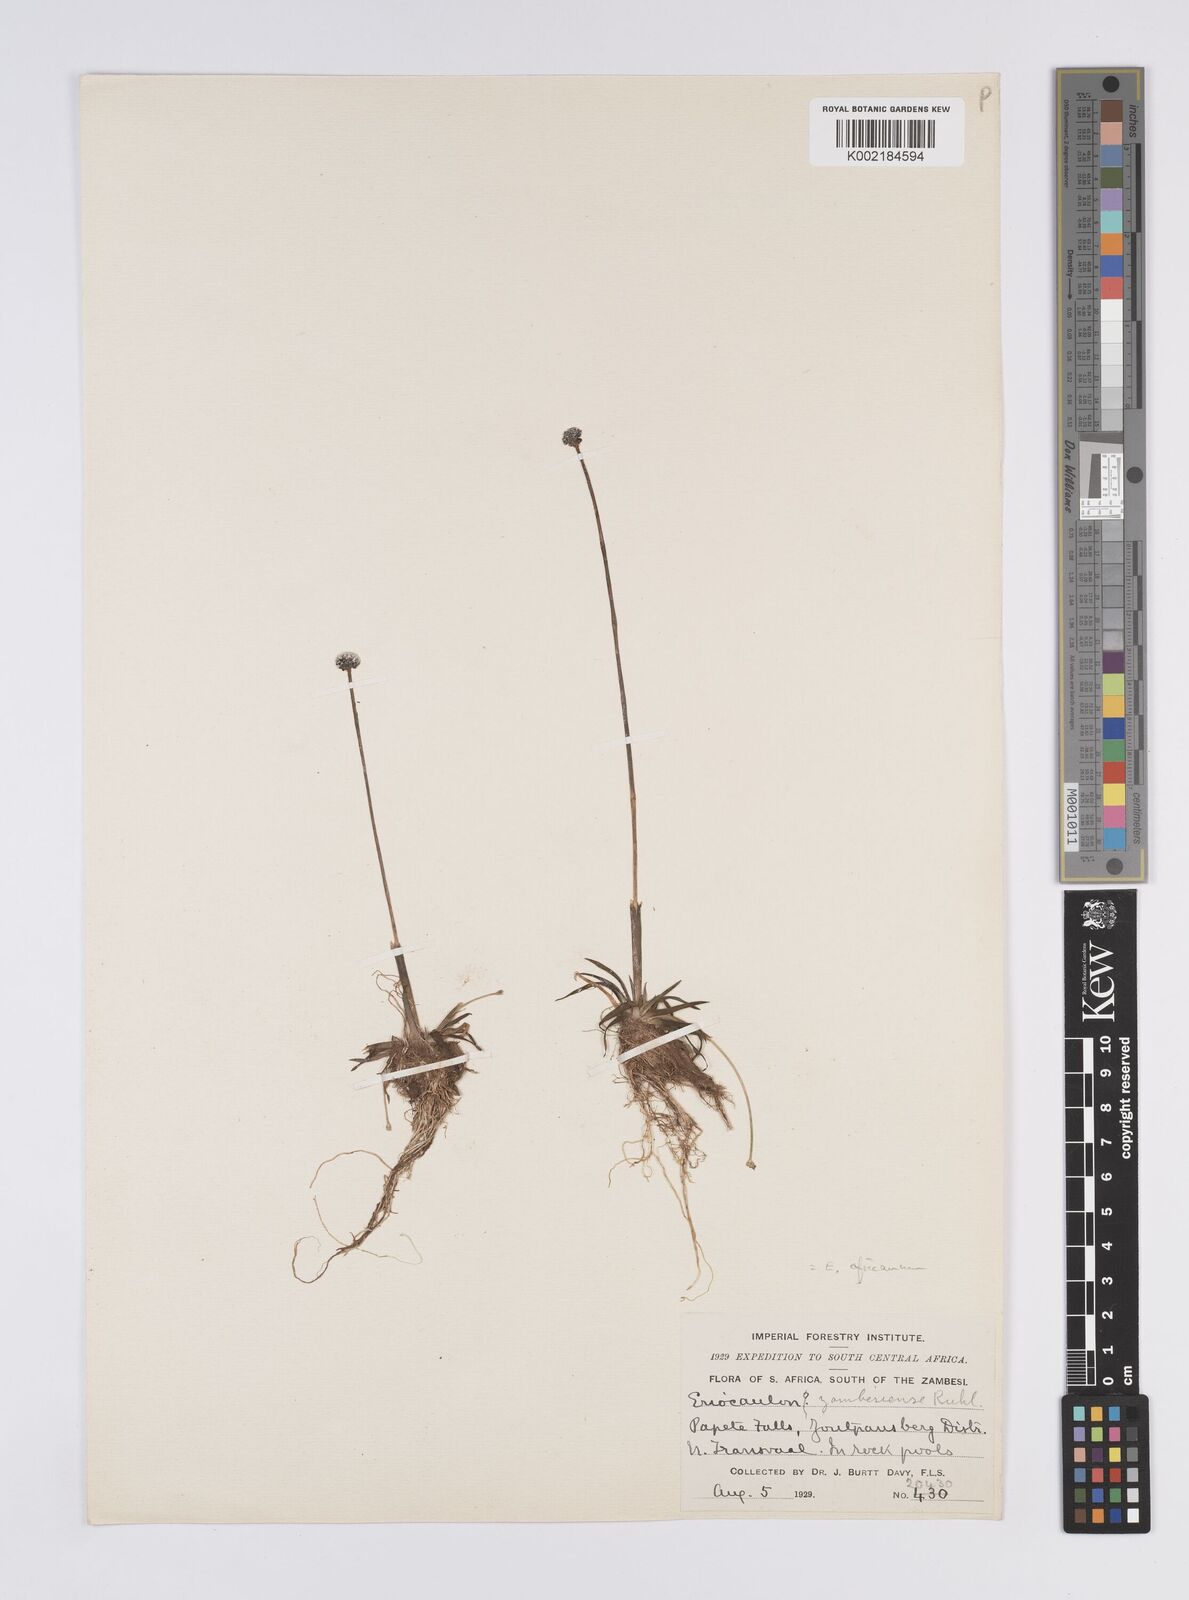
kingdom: Plantae
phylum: Tracheophyta
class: Liliopsida
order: Poales
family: Eriocaulaceae
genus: Eriocaulon
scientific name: Eriocaulon africanum
